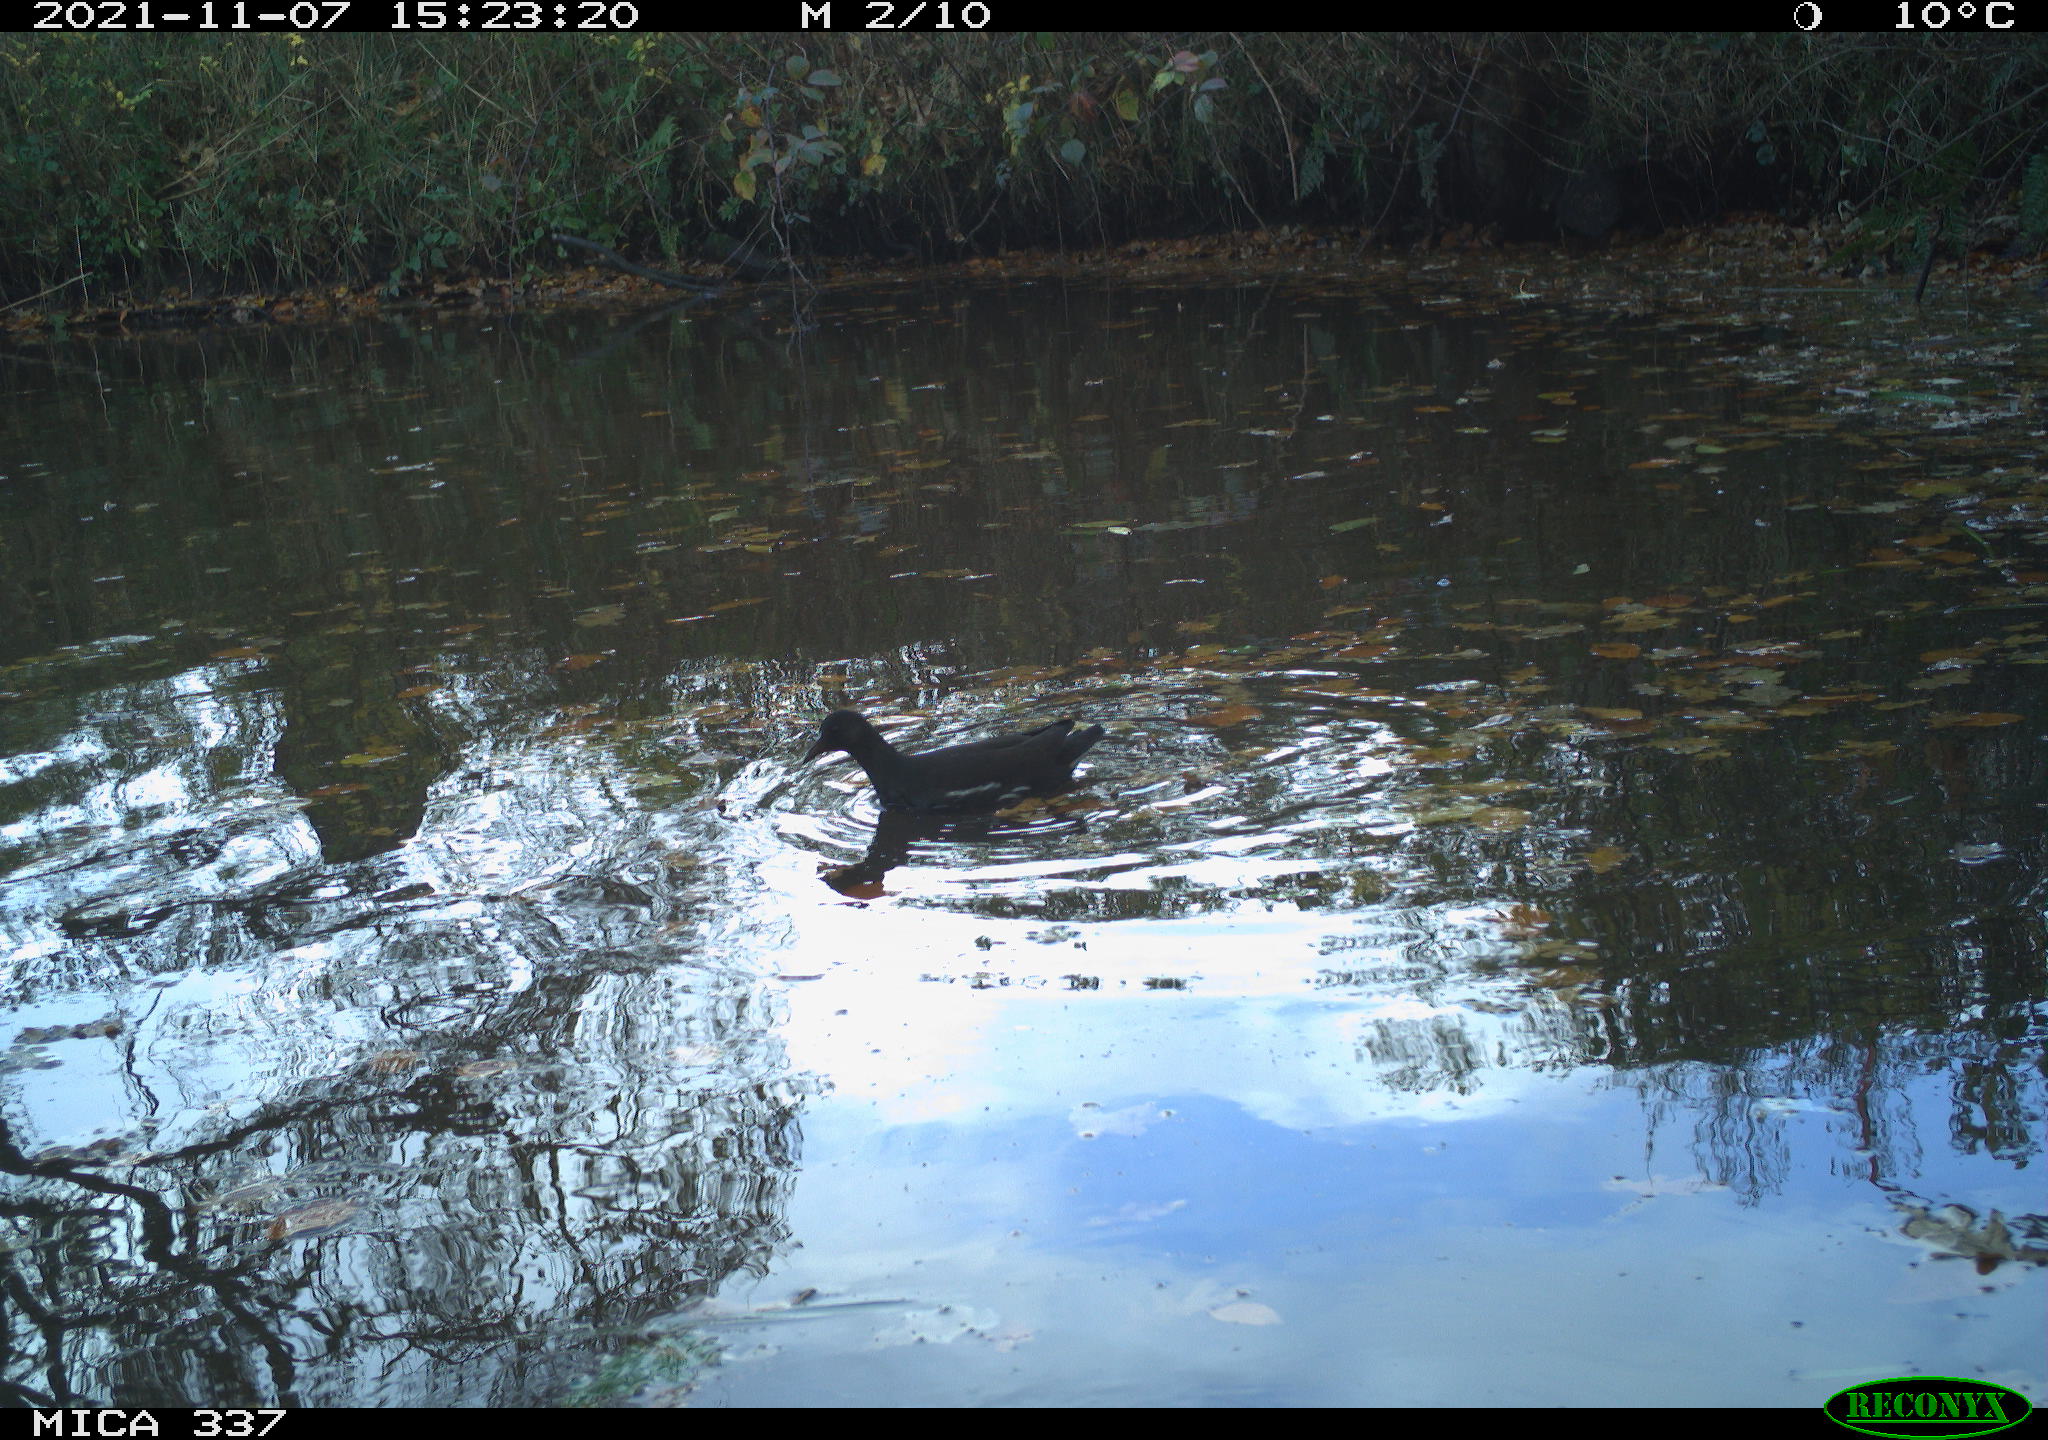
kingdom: Animalia
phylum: Chordata
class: Aves
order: Gruiformes
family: Rallidae
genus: Gallinula
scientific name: Gallinula chloropus
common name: Common moorhen
